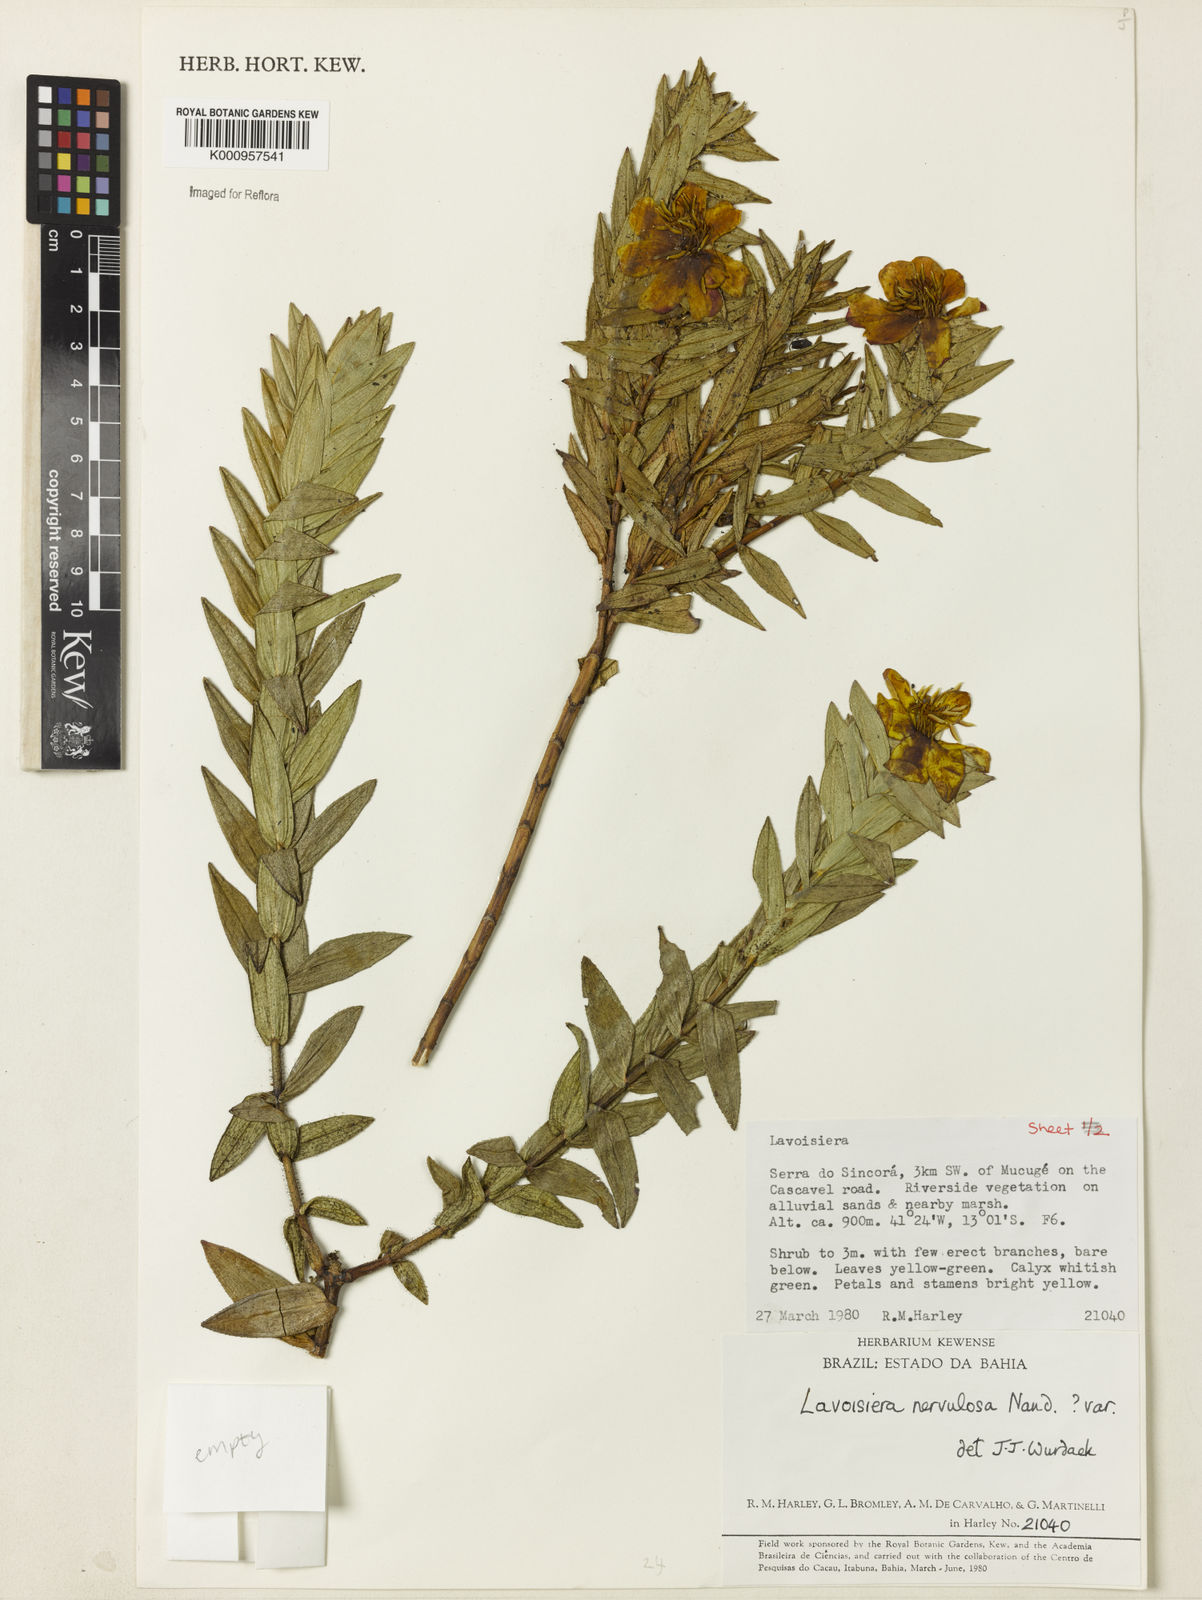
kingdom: Plantae
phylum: Tracheophyta
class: Magnoliopsida
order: Myrtales
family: Melastomataceae
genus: Microlicia
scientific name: Microlicia nervulosa
